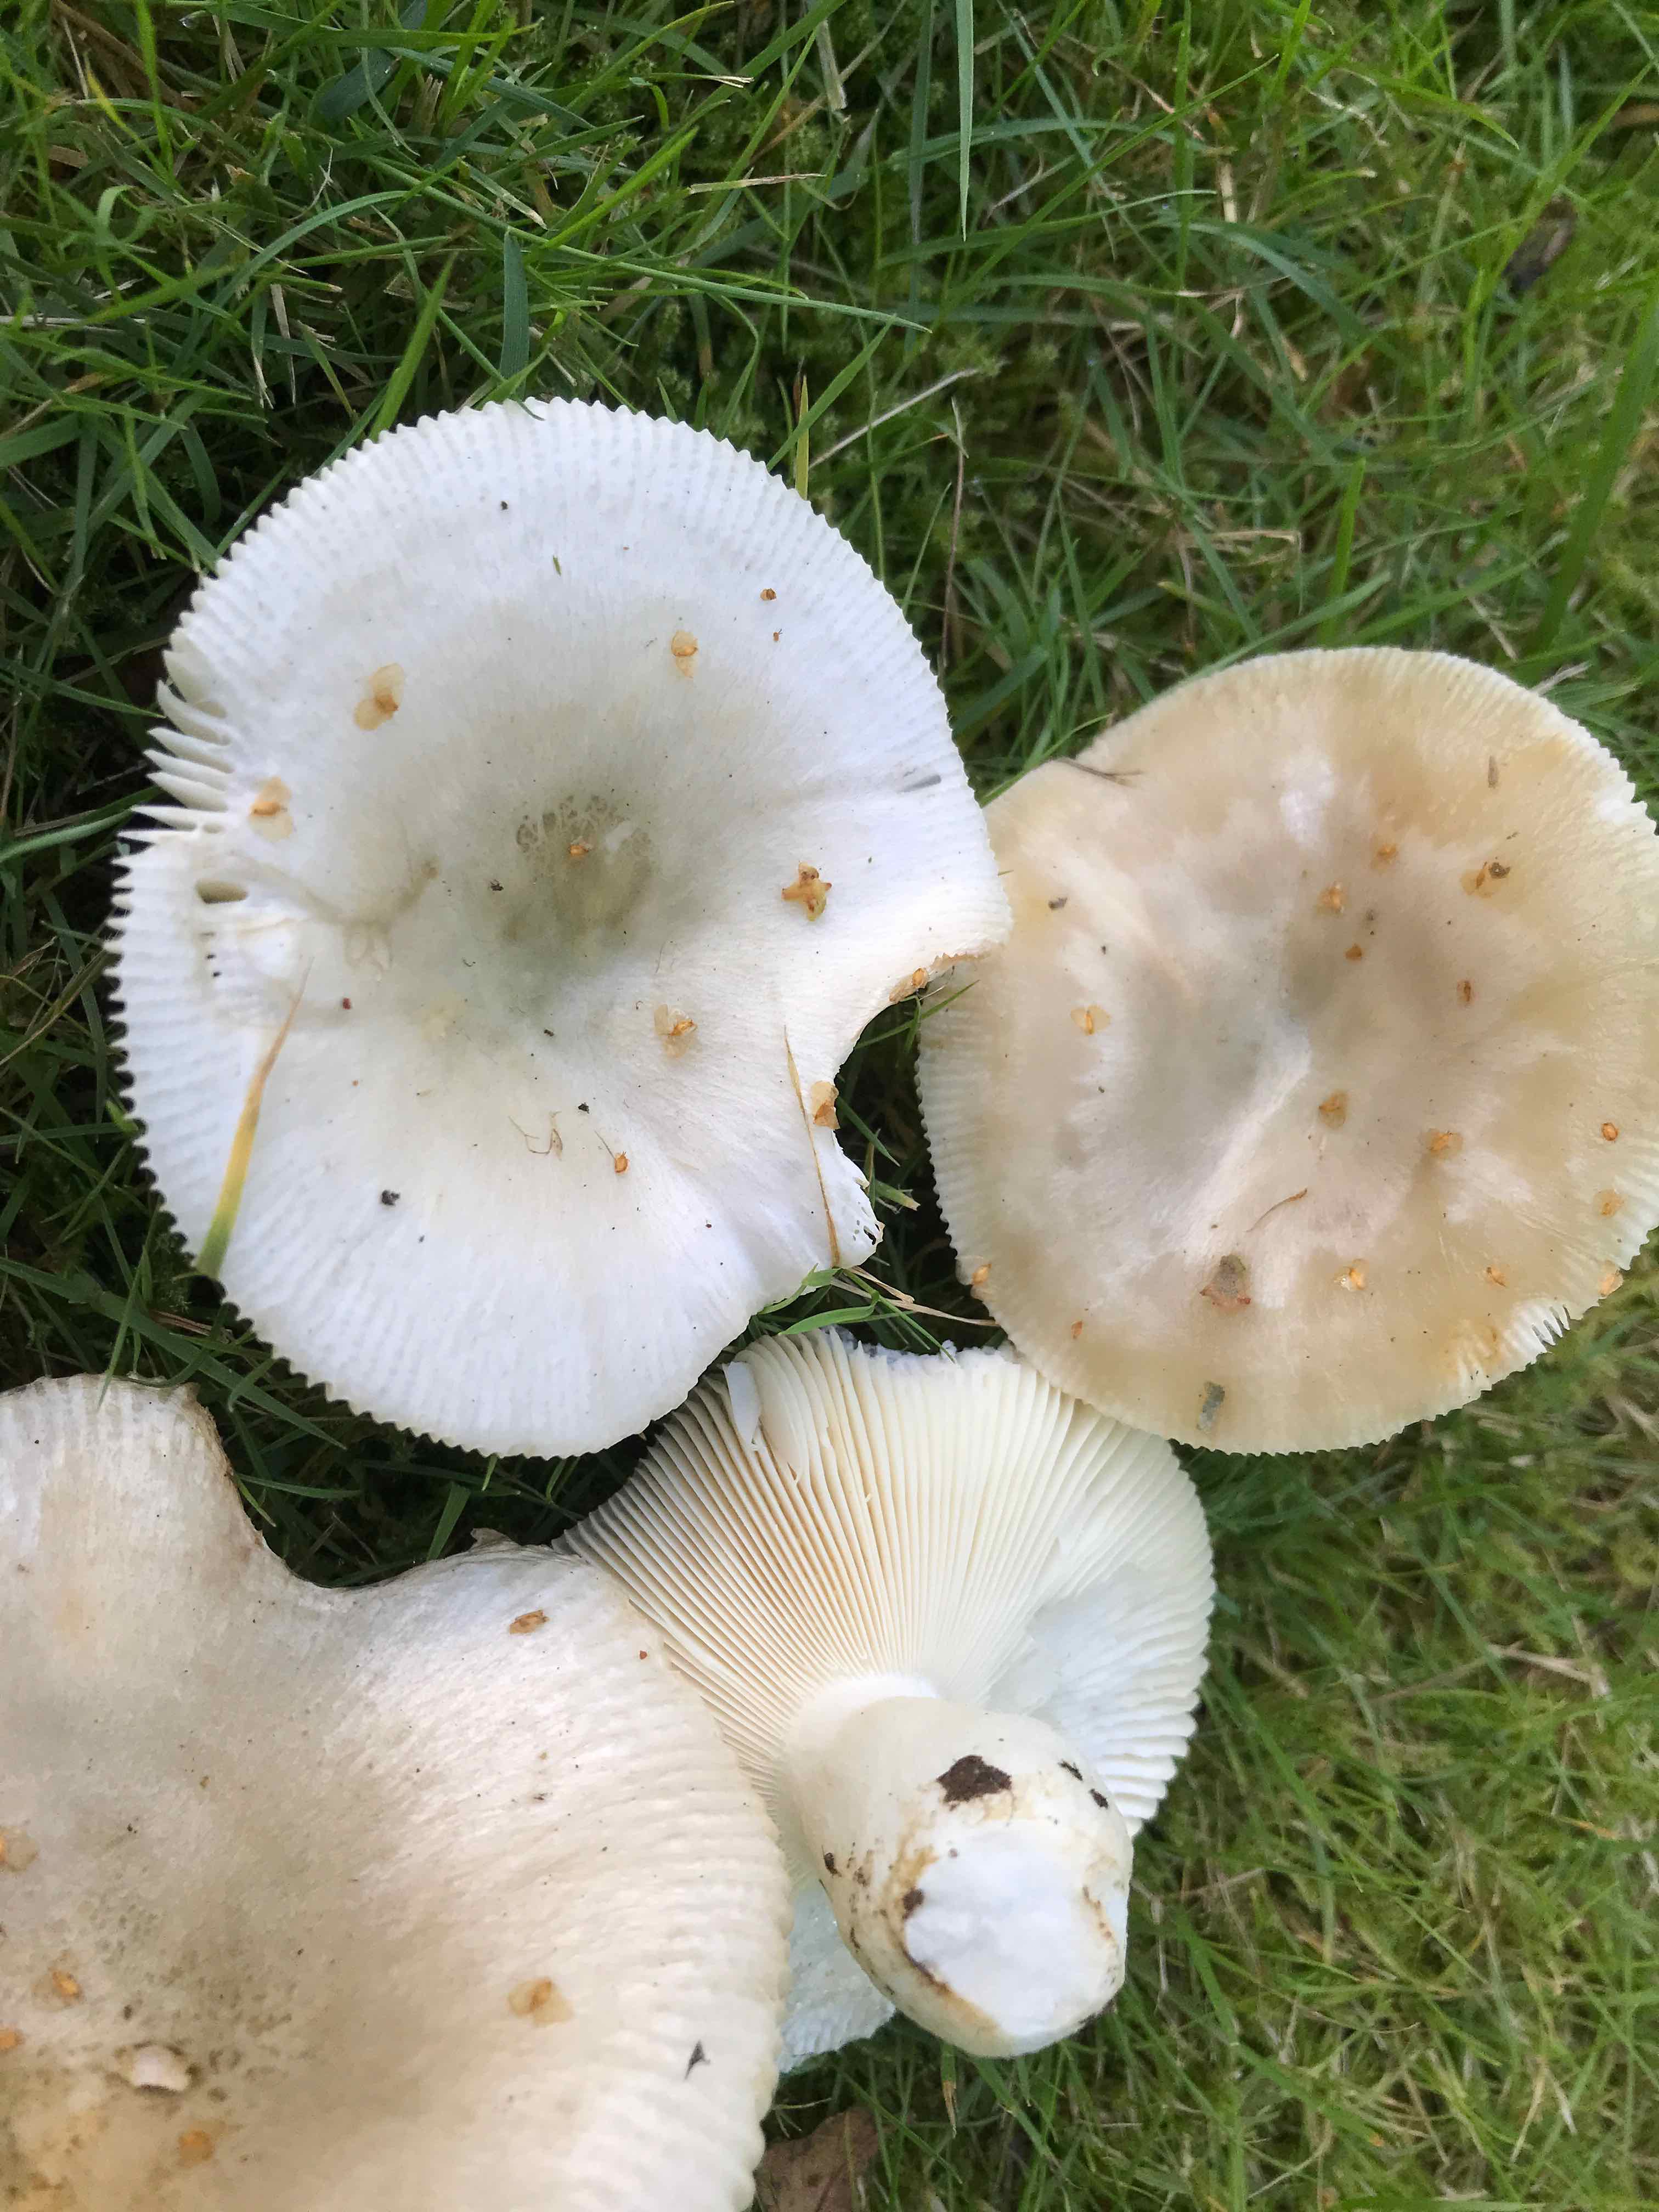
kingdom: Fungi
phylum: Basidiomycota
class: Agaricomycetes
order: Russulales
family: Russulaceae
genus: Russula
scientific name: Russula aeruginea
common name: græsgrøn skørhat
